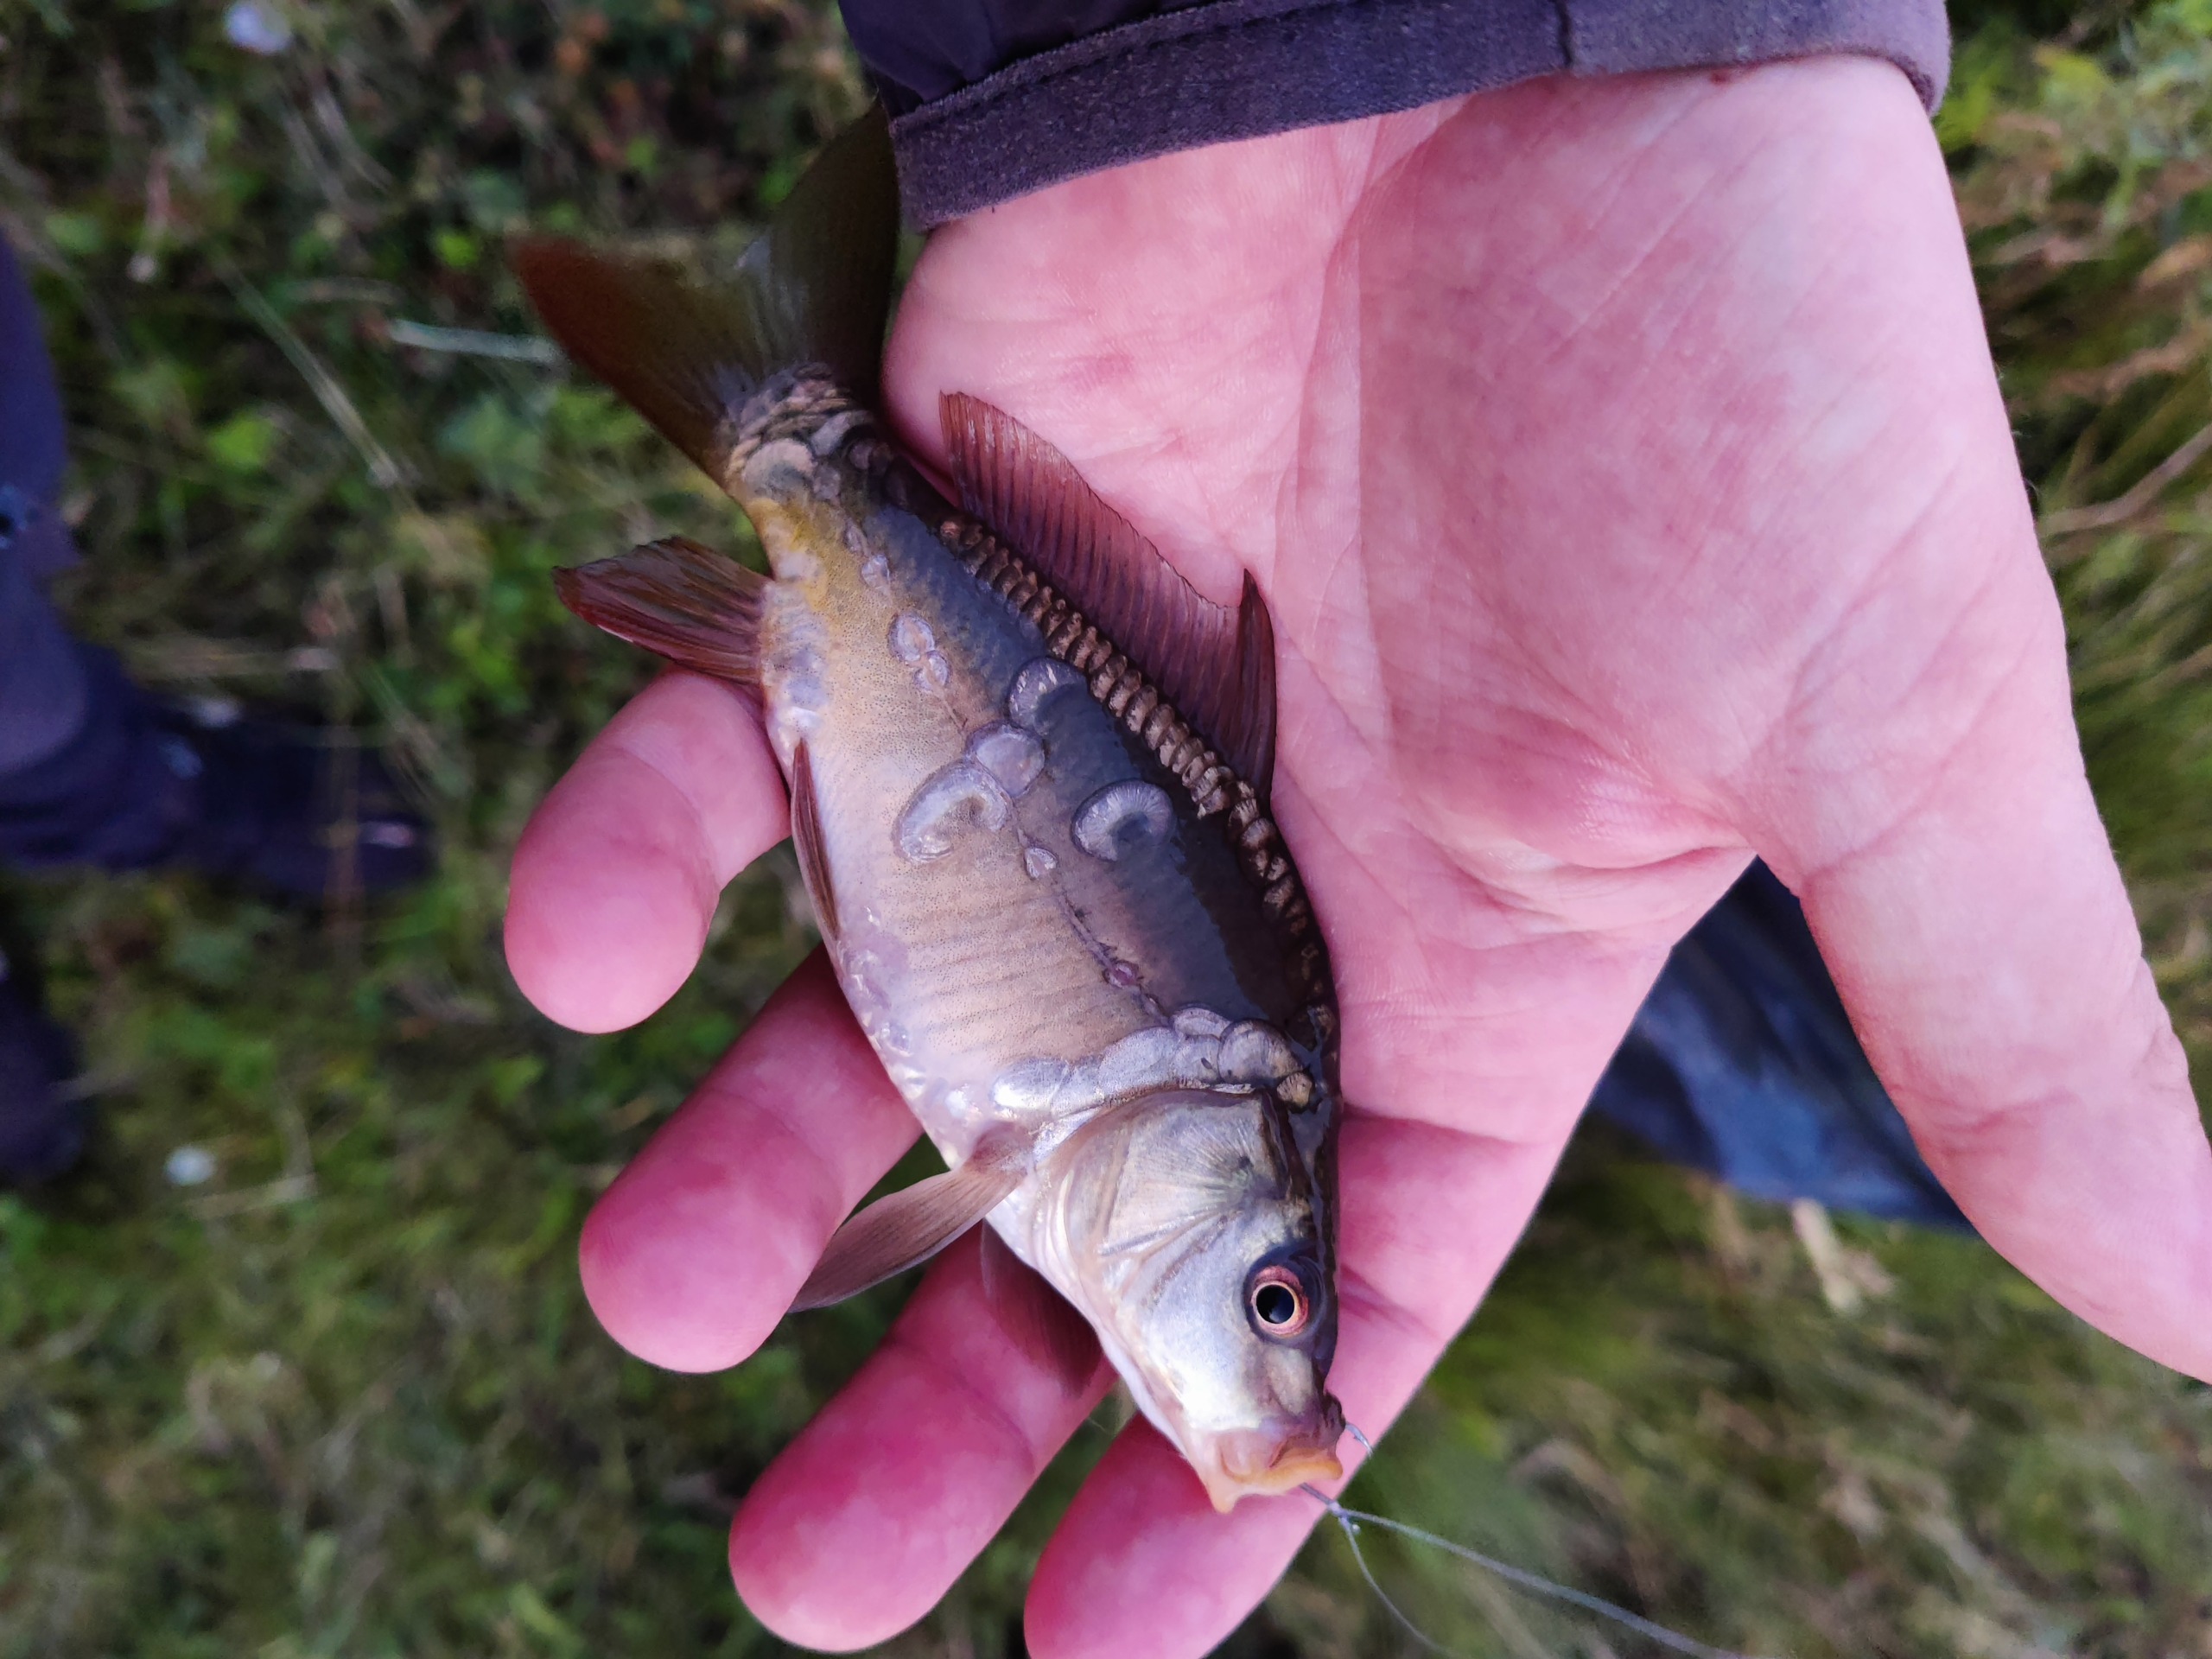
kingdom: Animalia
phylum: Chordata
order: Cypriniformes
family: Cyprinidae
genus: Cyprinus
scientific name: Cyprinus carpio
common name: Karpe
